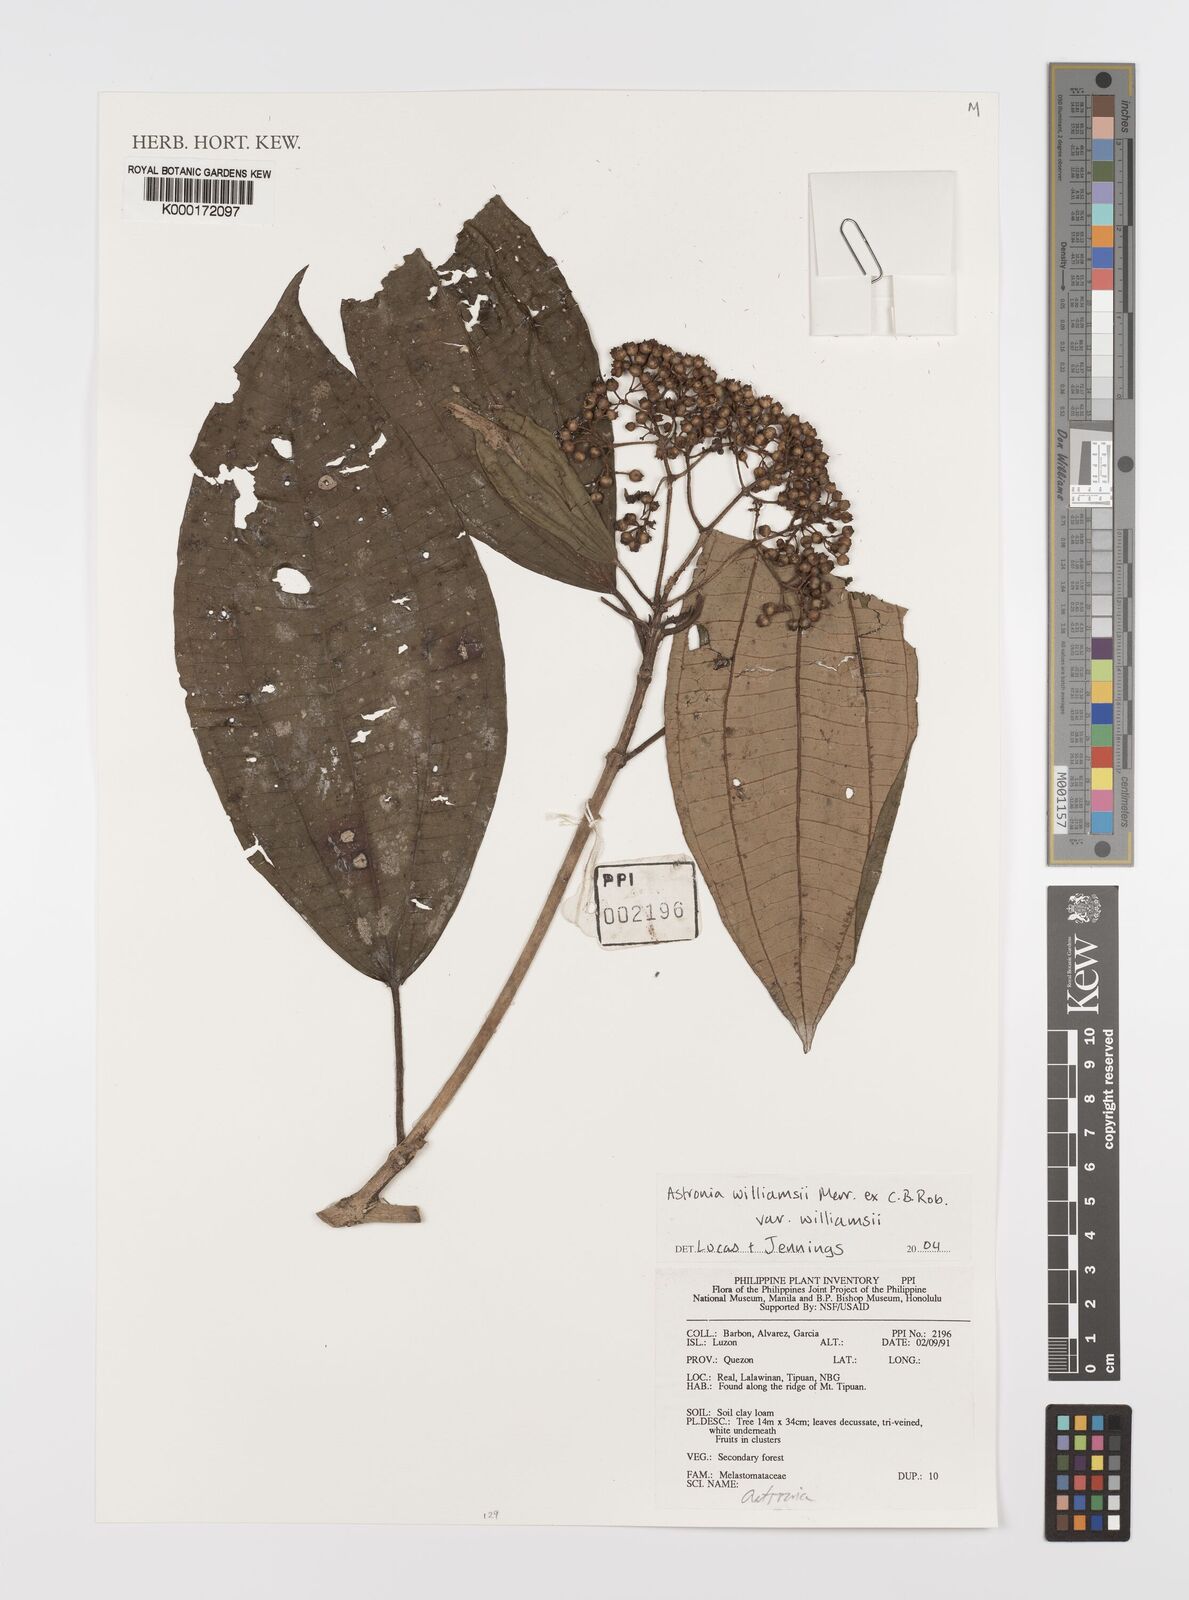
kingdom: Plantae
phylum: Tracheophyta
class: Magnoliopsida
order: Myrtales
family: Melastomataceae
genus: Astronia
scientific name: Astronia williamsii
